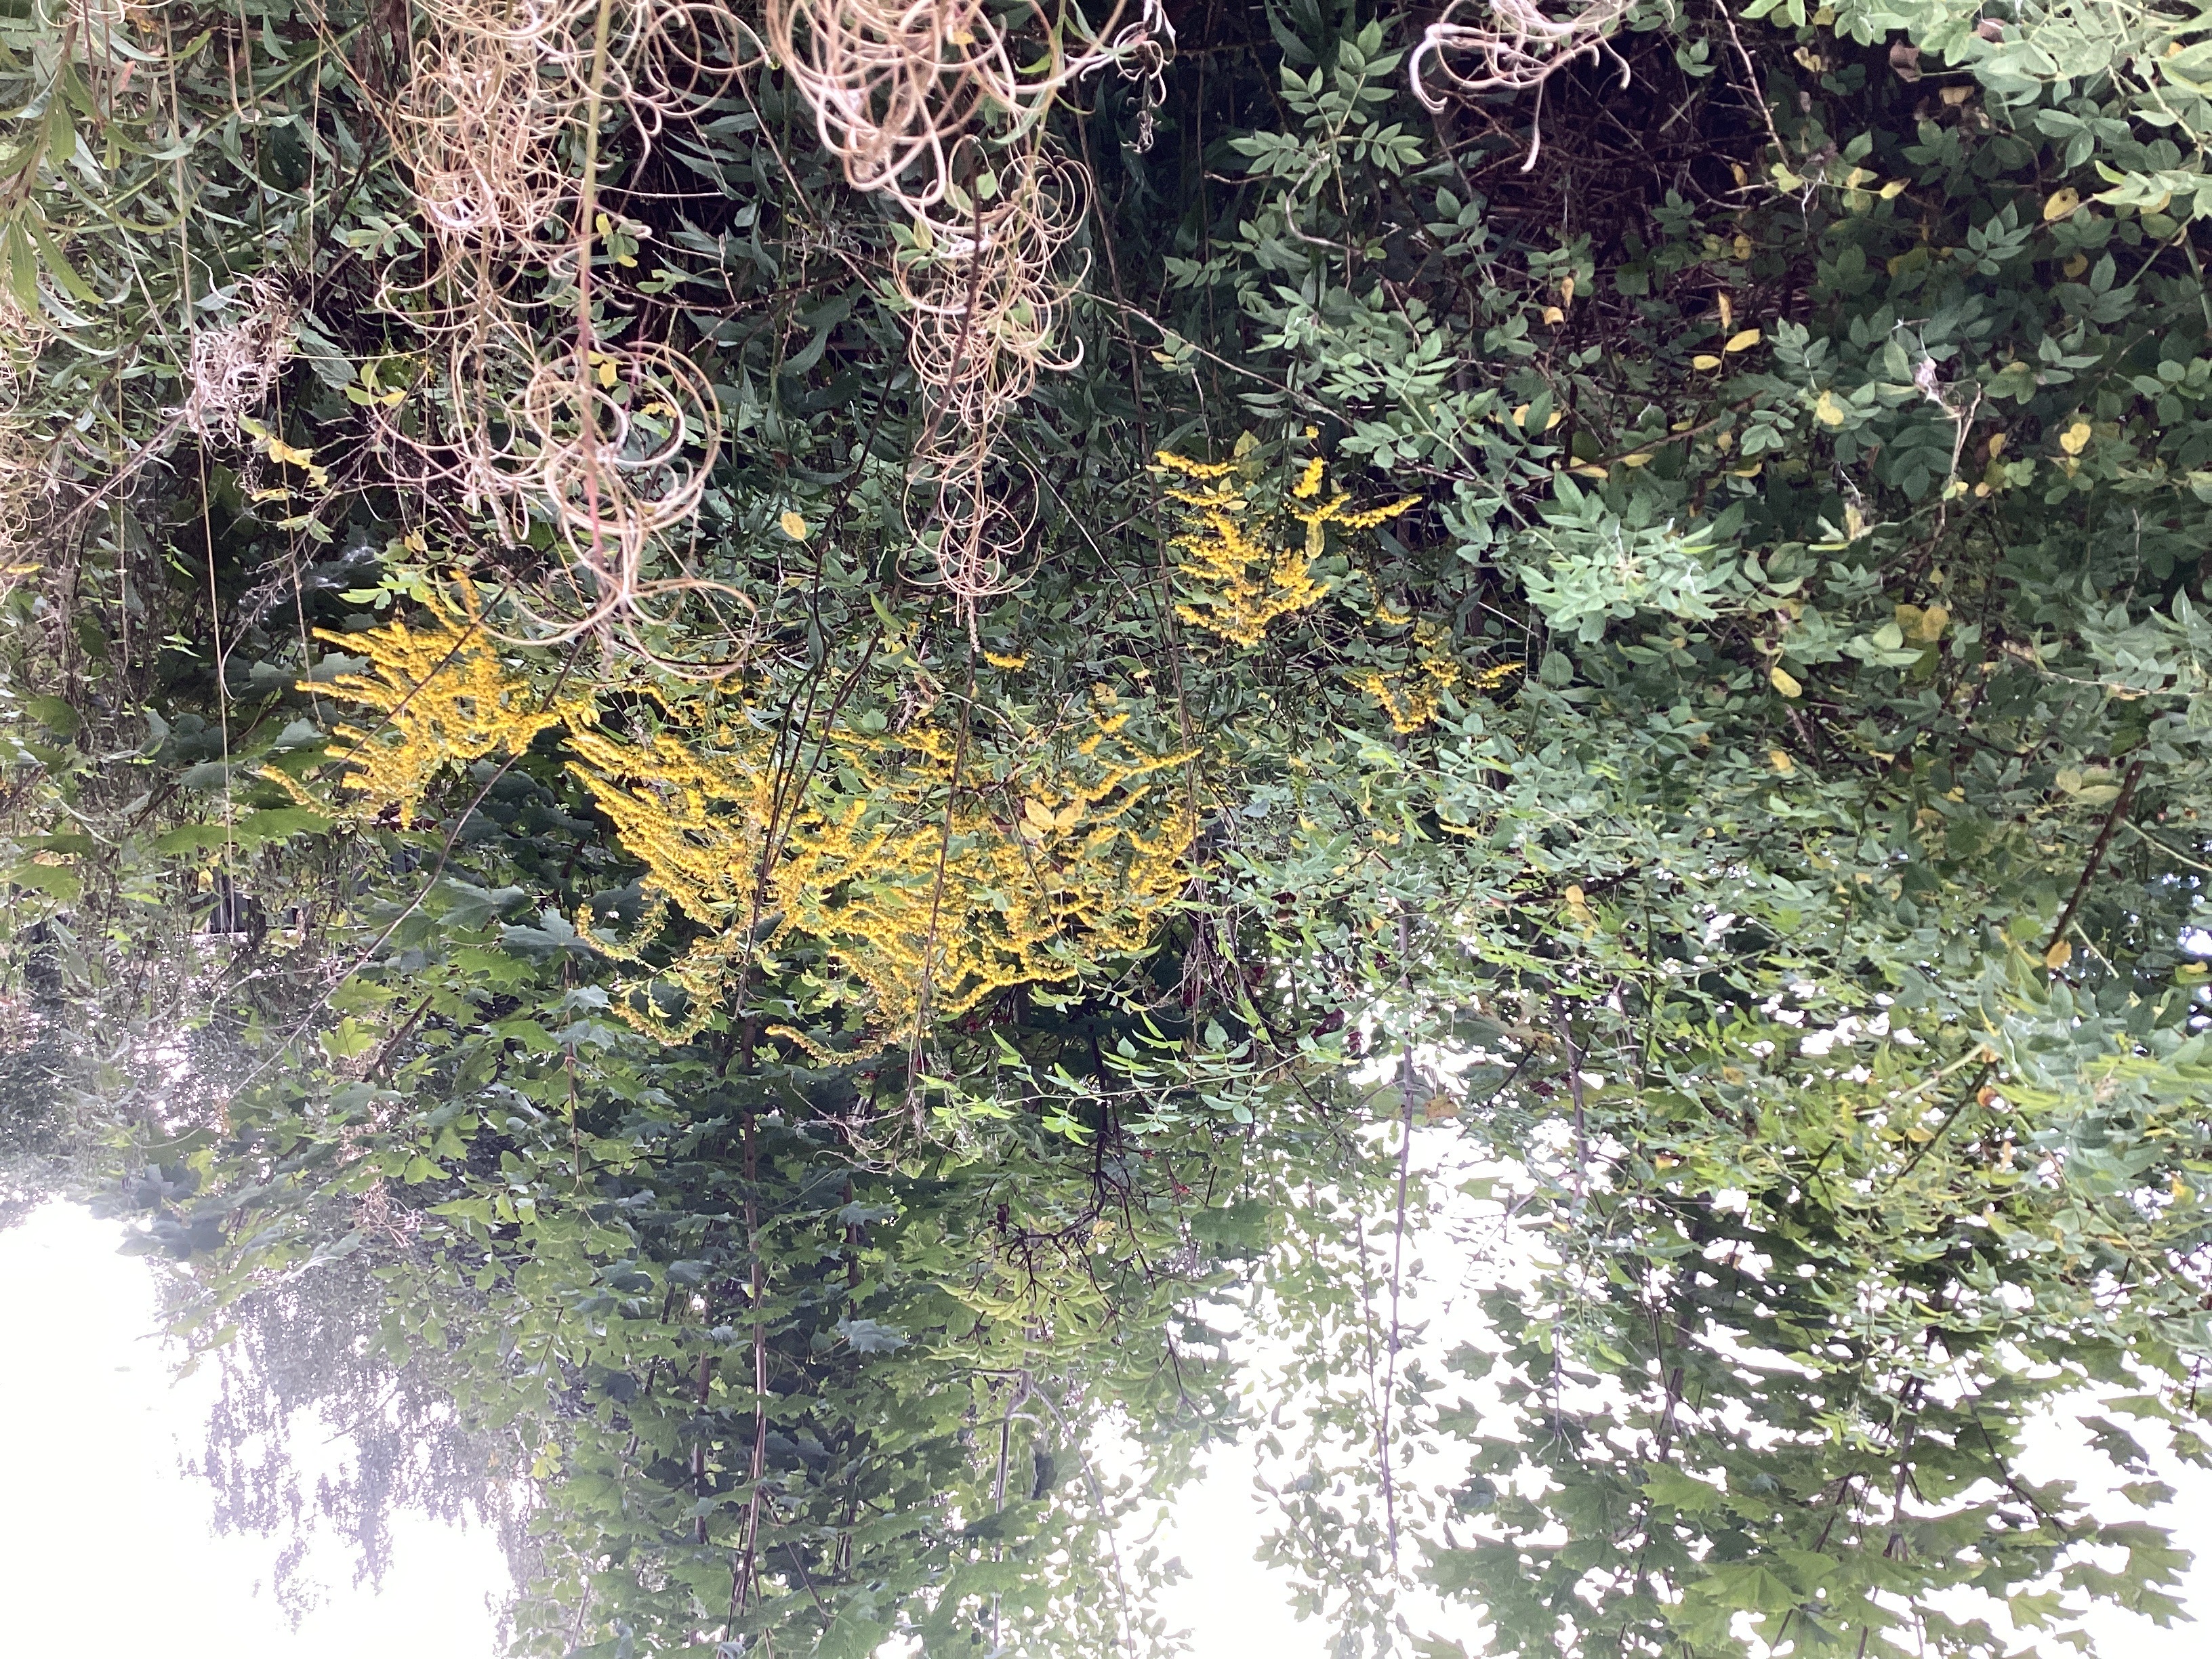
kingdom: Plantae
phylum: Tracheophyta
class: Magnoliopsida
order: Asterales
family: Asteraceae
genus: Solidago
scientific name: Solidago canadensis
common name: kanadagullris
